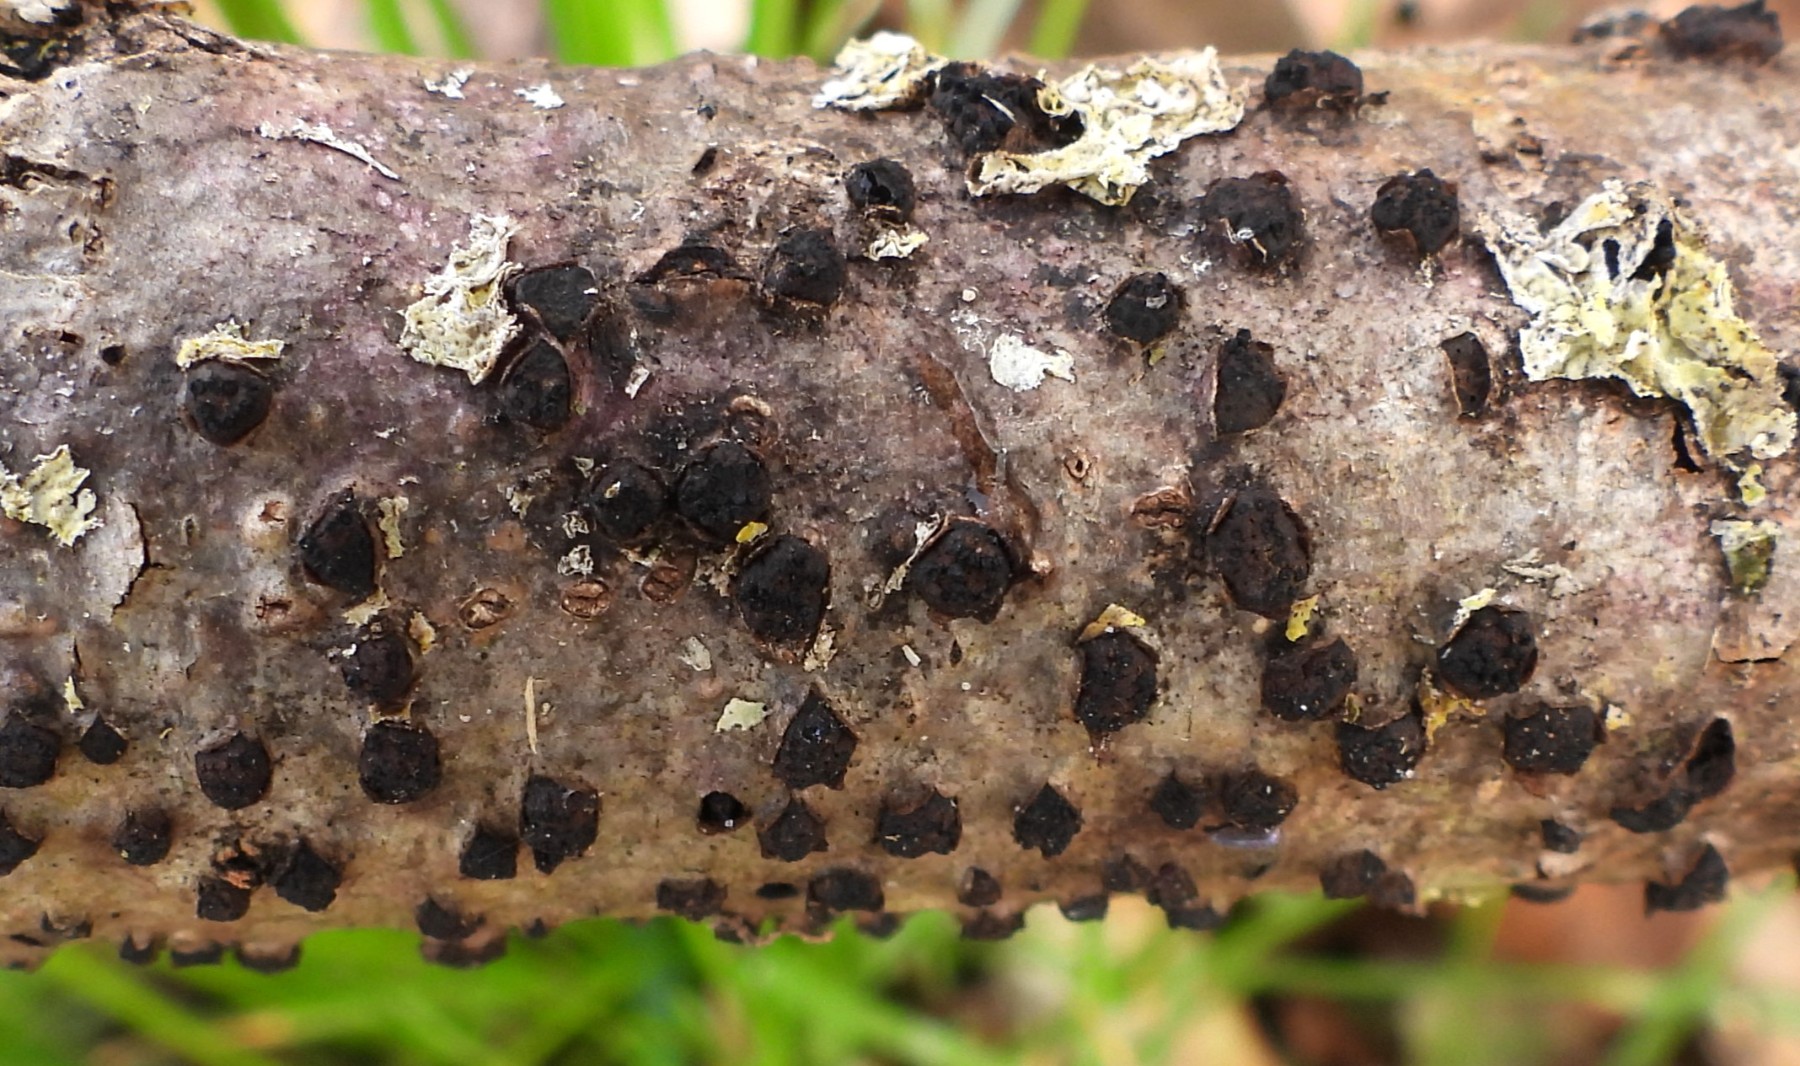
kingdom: Fungi
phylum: Ascomycota
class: Sordariomycetes
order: Xylariales
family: Diatrypaceae
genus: Diatrypella
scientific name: Diatrypella quercina
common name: ege-kulskorpe
